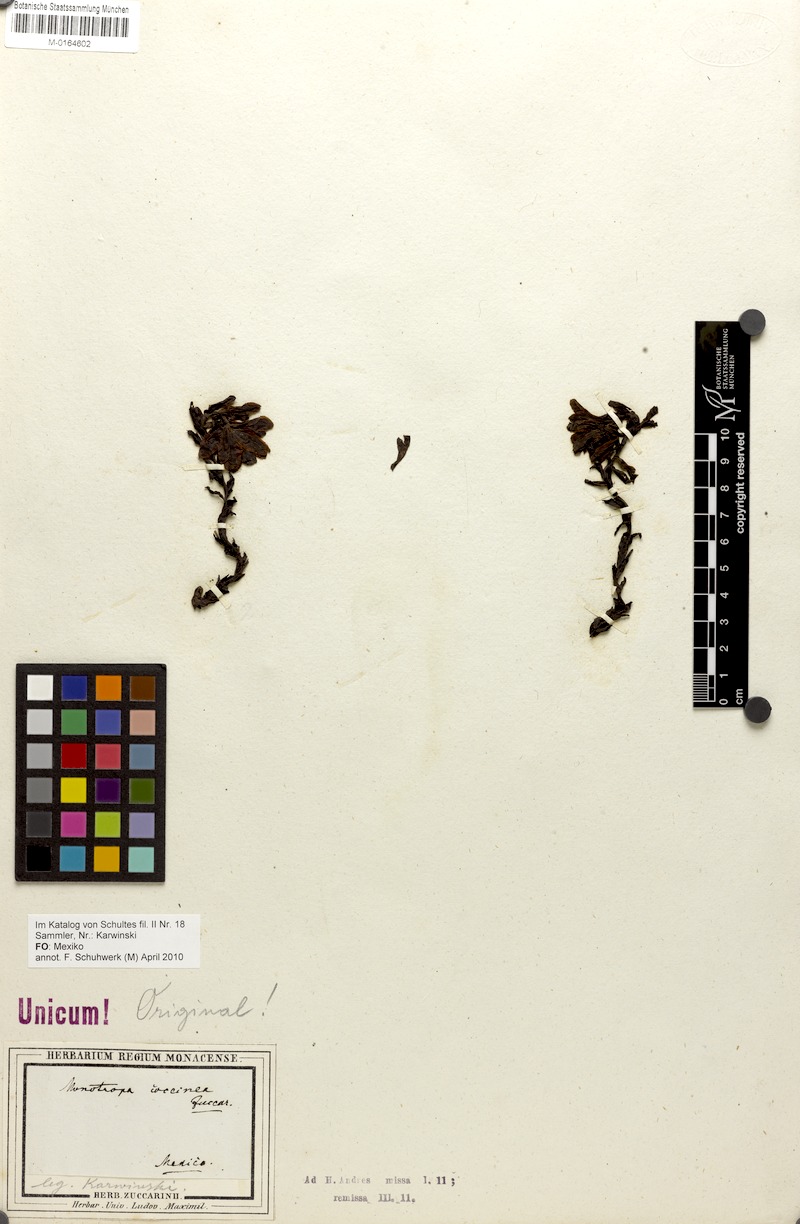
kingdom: Plantae
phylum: Tracheophyta
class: Magnoliopsida
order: Ericales
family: Ericaceae
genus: Monotropa
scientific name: Monotropa coccinea
